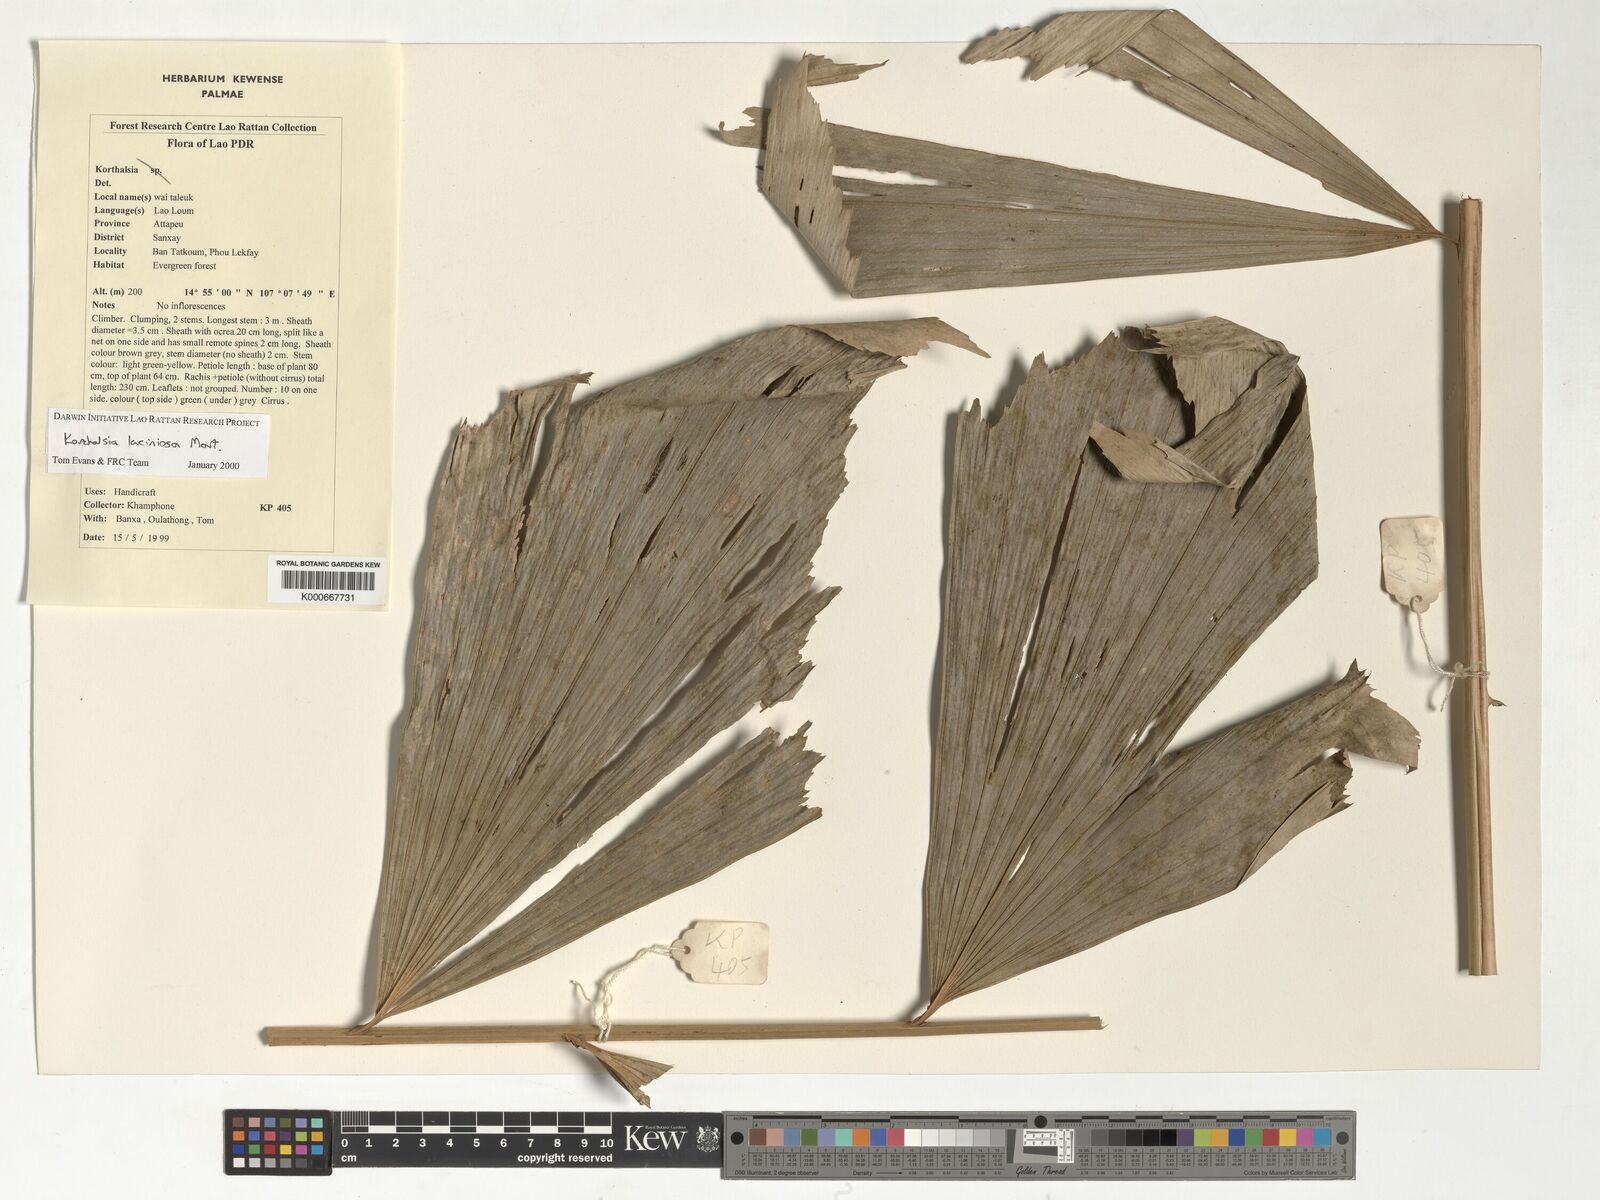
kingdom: Plantae
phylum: Tracheophyta
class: Liliopsida
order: Arecales
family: Arecaceae
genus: Korthalsia
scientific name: Korthalsia laciniosa
